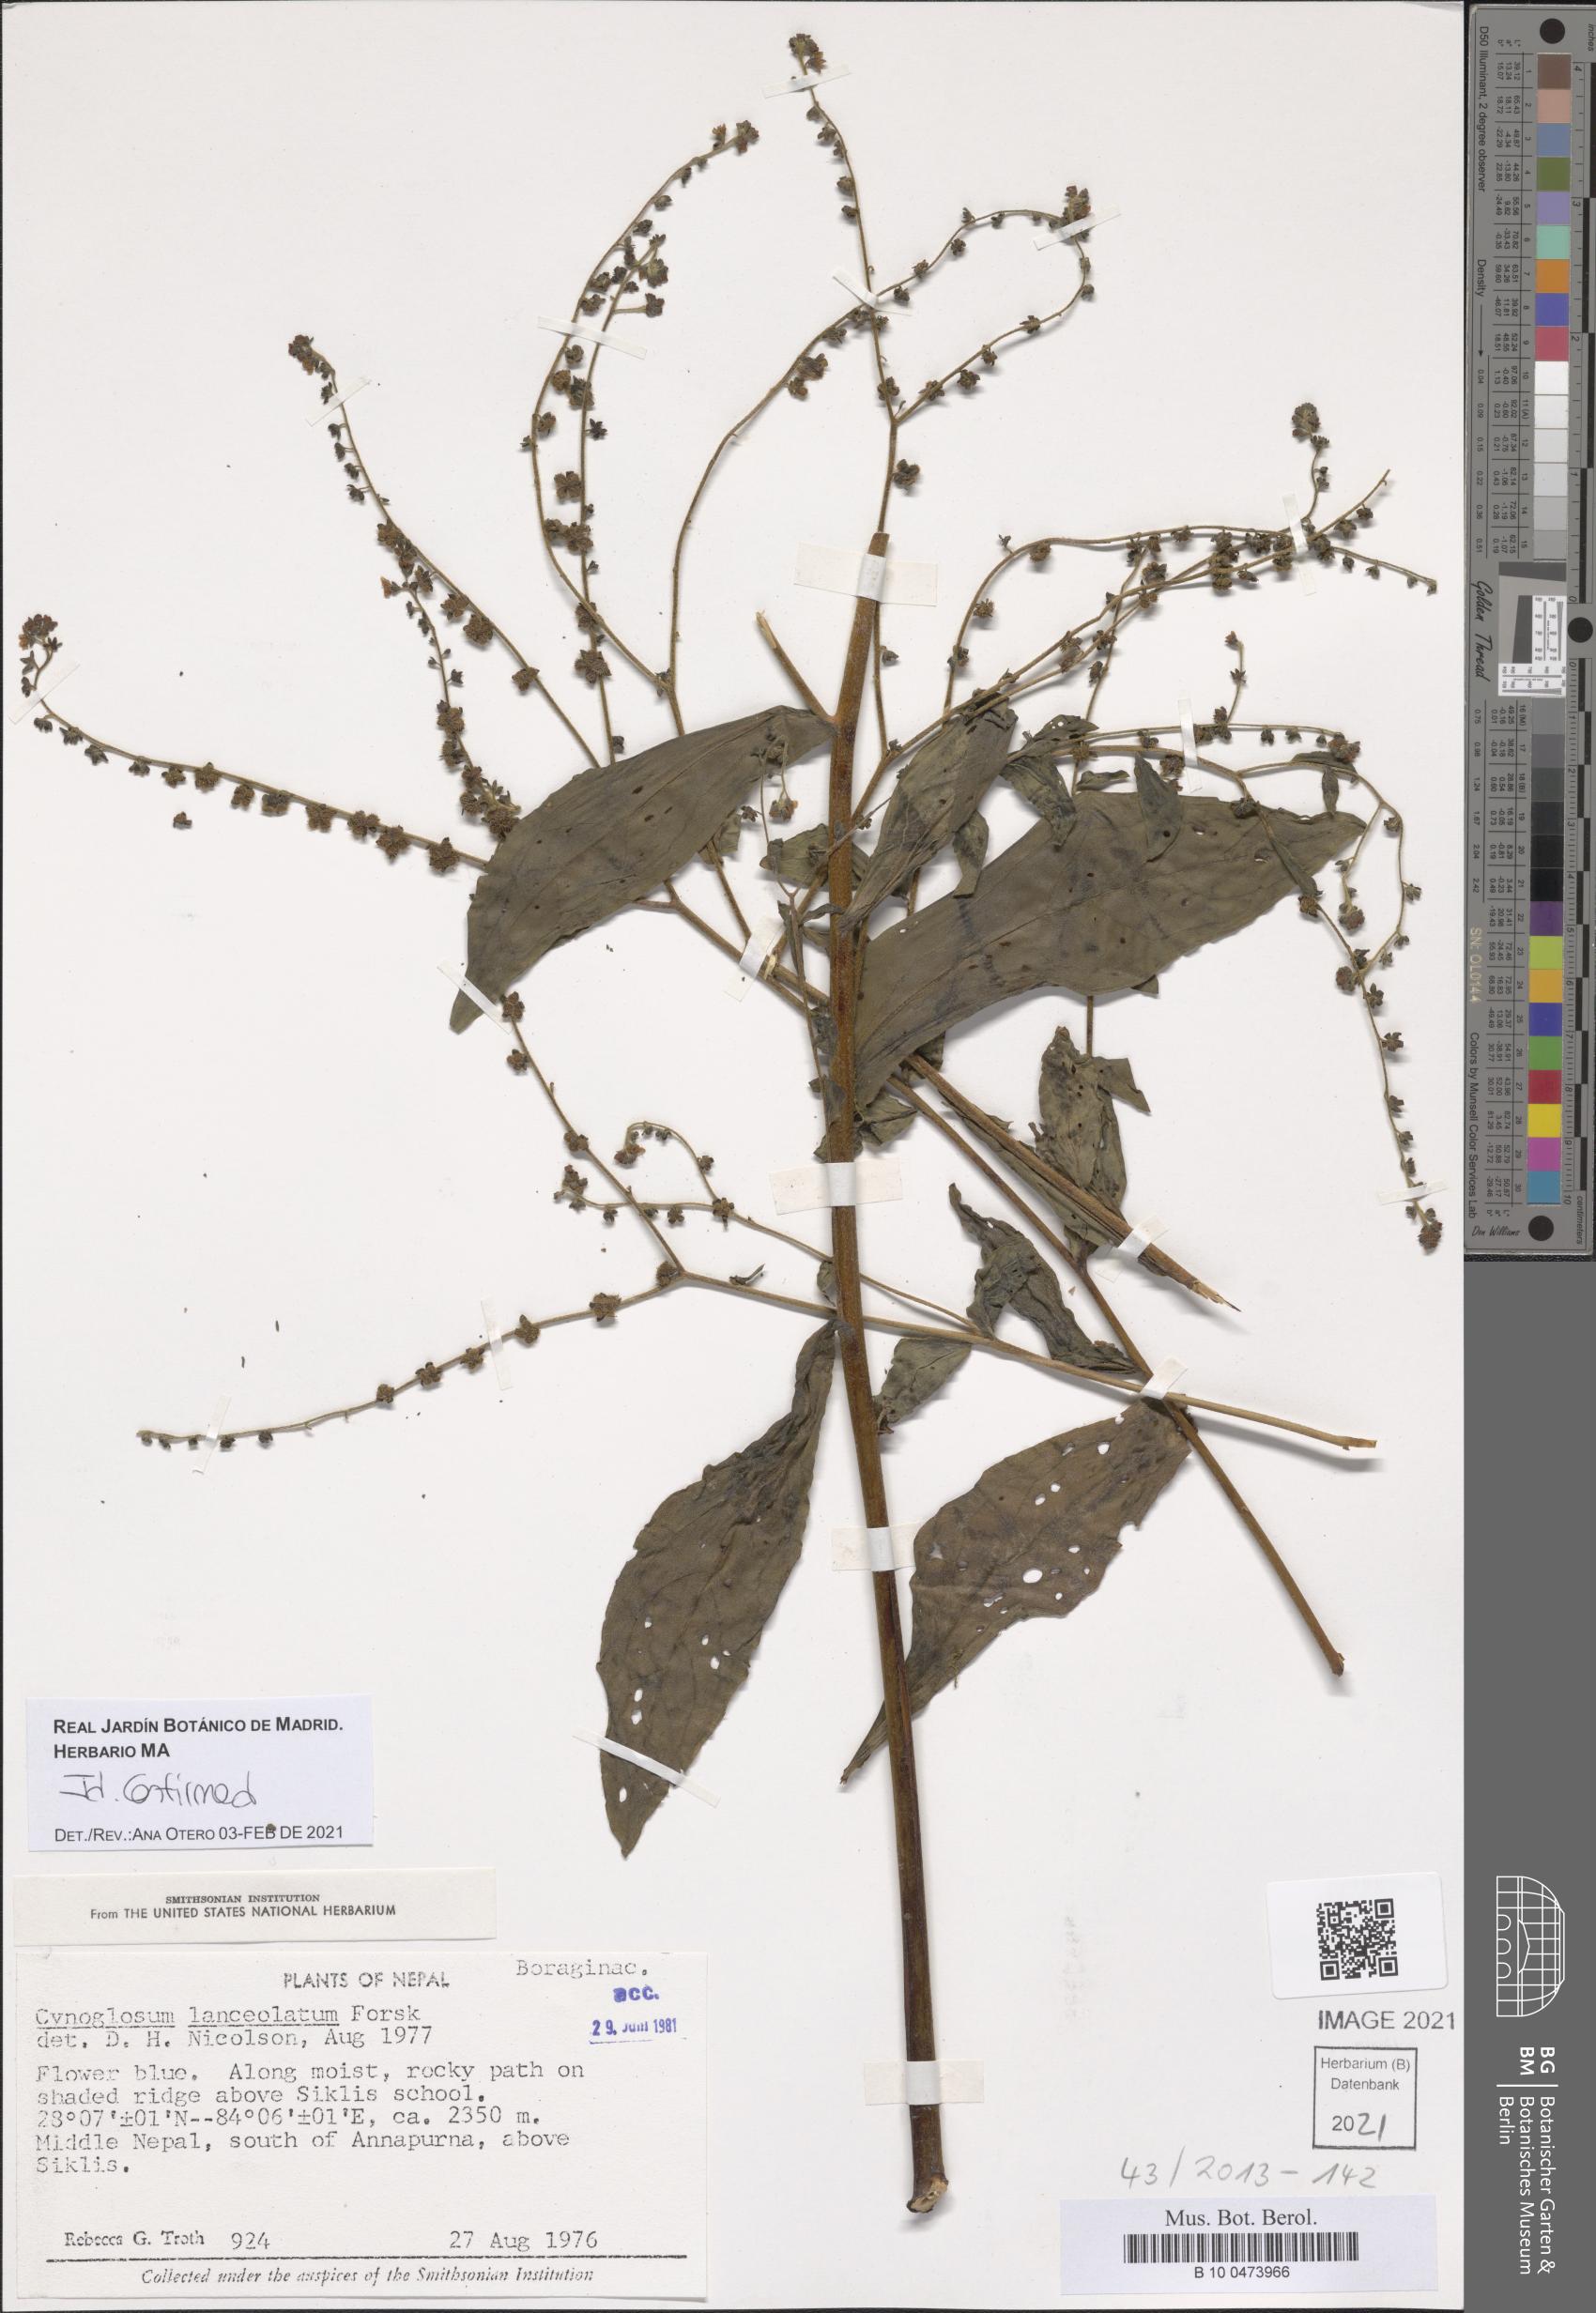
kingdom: Plantae
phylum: Tracheophyta
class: Magnoliopsida
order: Boraginales
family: Boraginaceae
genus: Paracynoglossum
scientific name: Paracynoglossum lanceolatum
